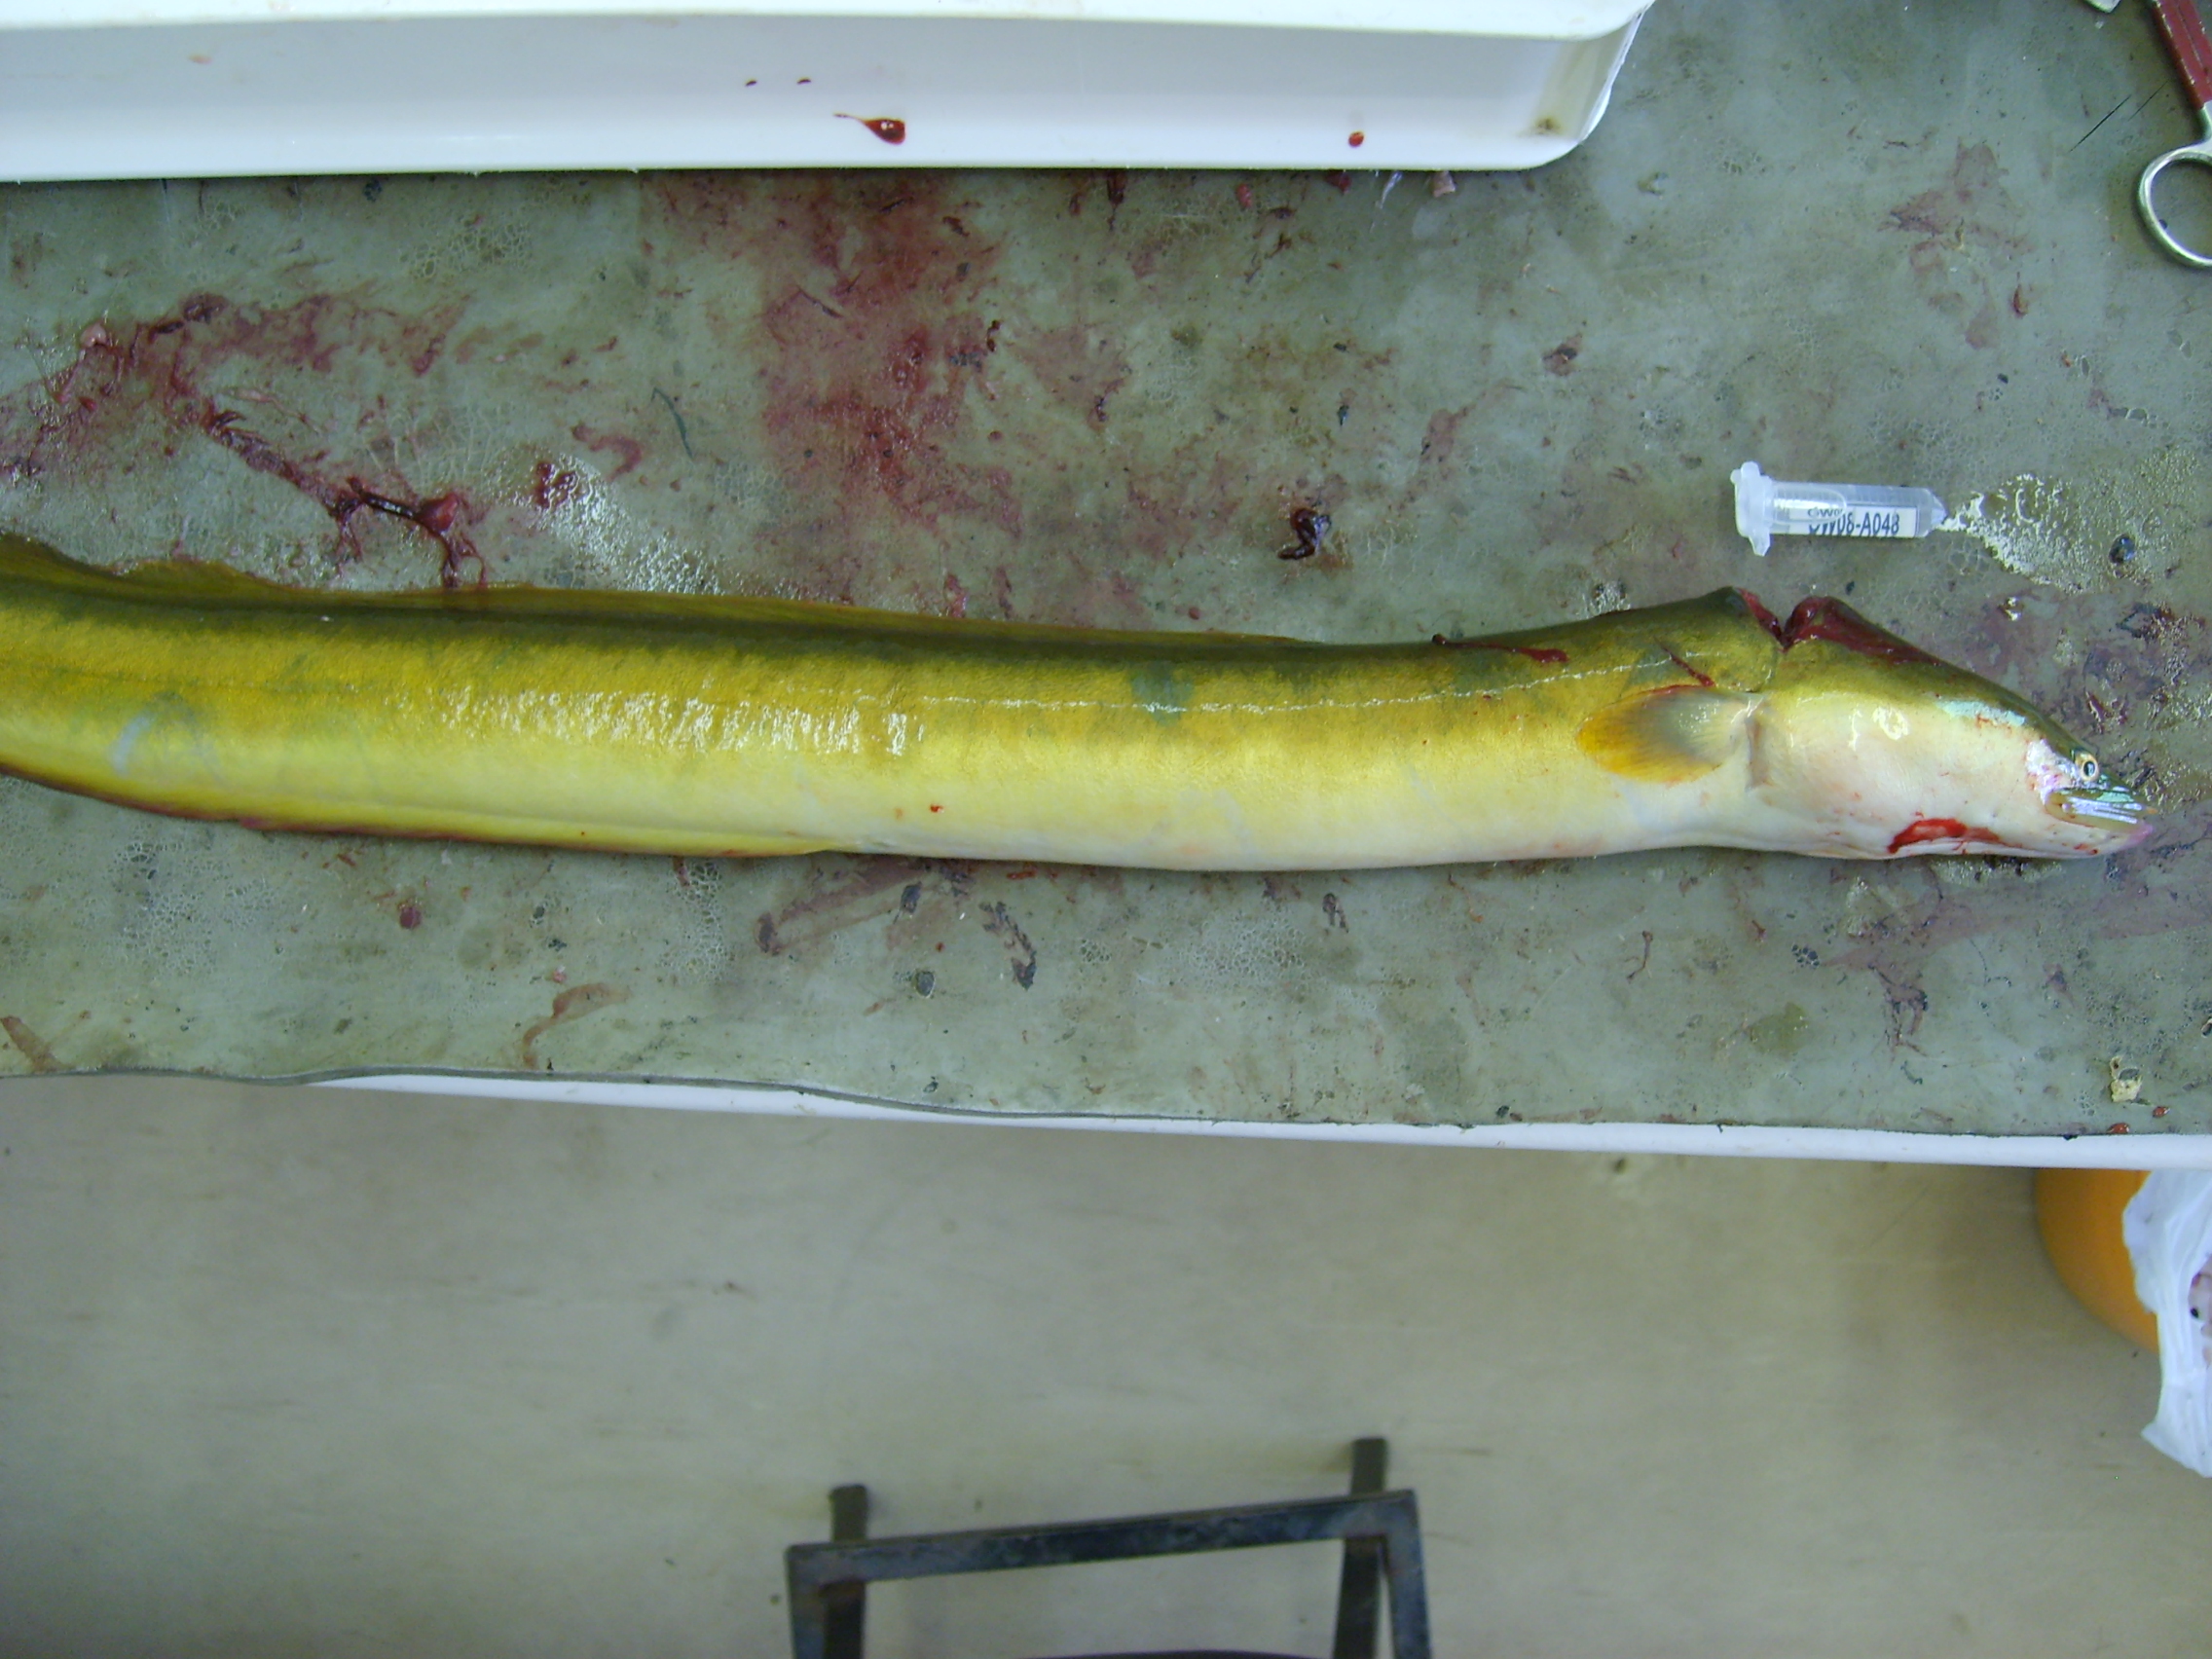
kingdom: Animalia
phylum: Chordata
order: Anguilliformes
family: Anguillidae
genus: Anguilla
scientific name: Anguilla mossambica
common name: African longfin eel
